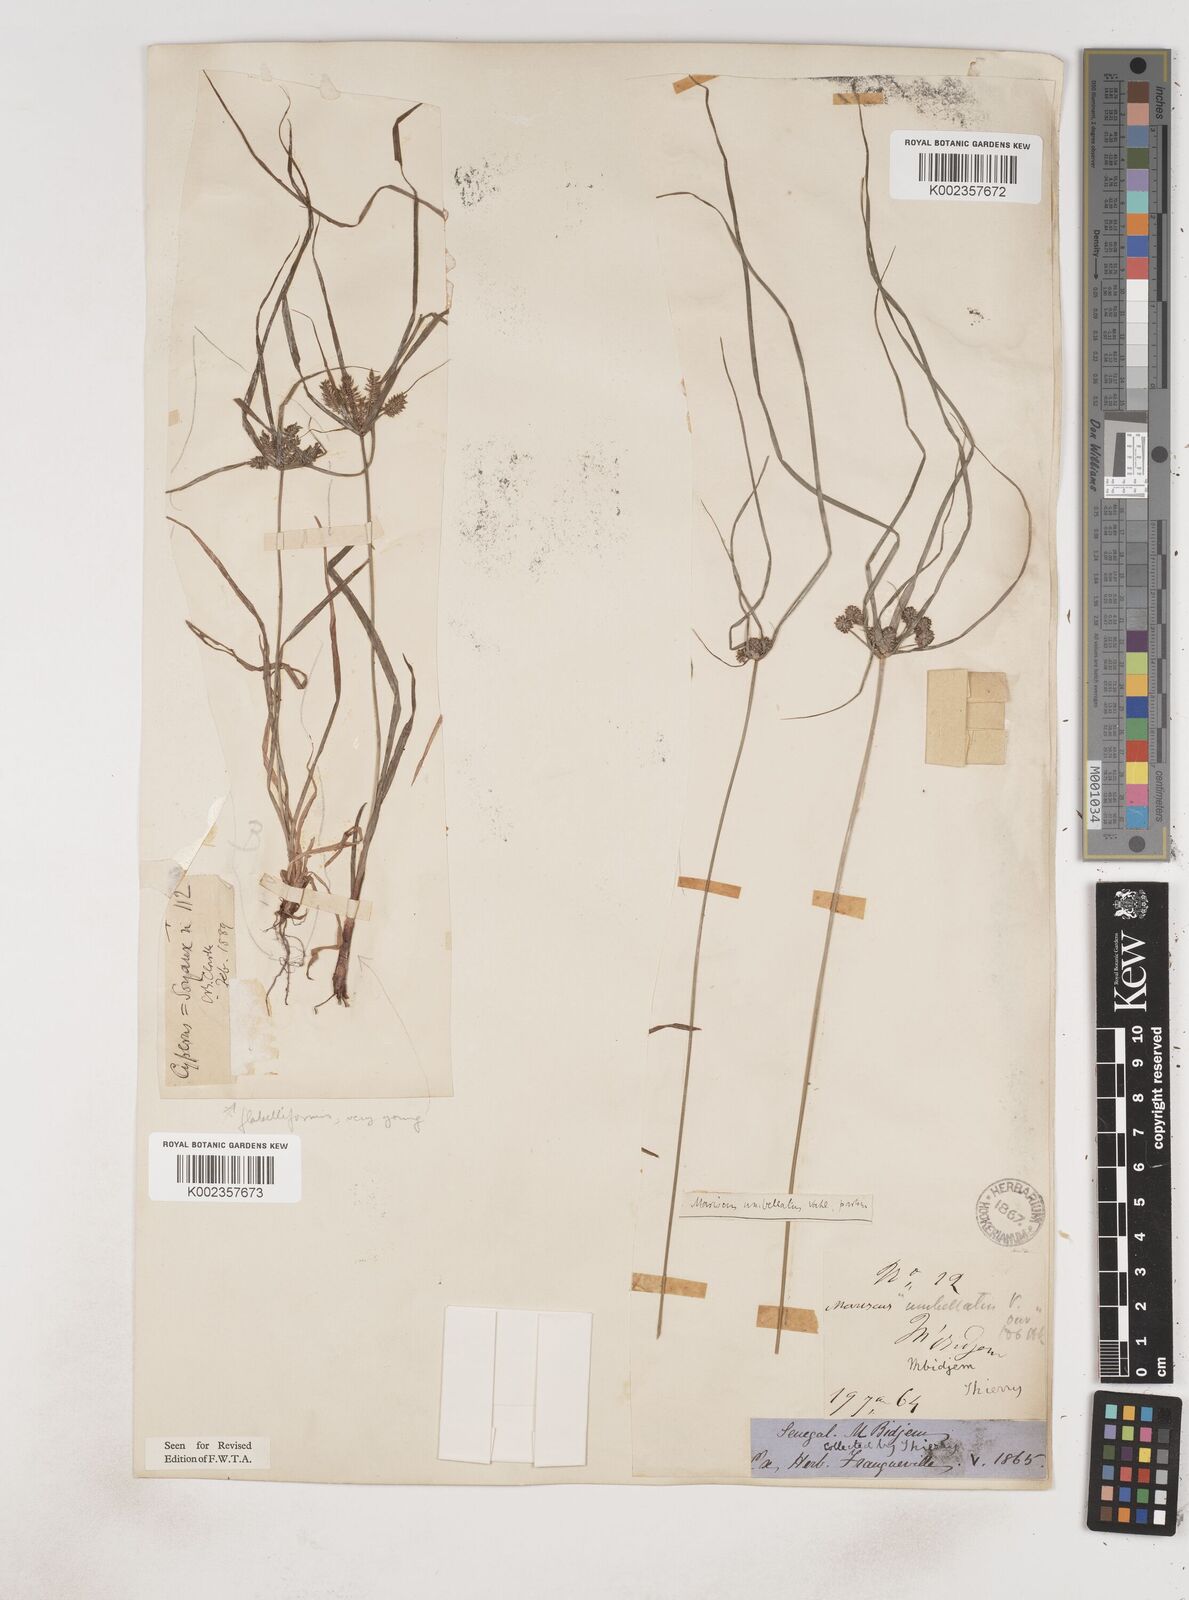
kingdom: Plantae
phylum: Tracheophyta
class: Liliopsida
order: Poales
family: Cyperaceae
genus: Cyperus
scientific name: Cyperus sublimis
